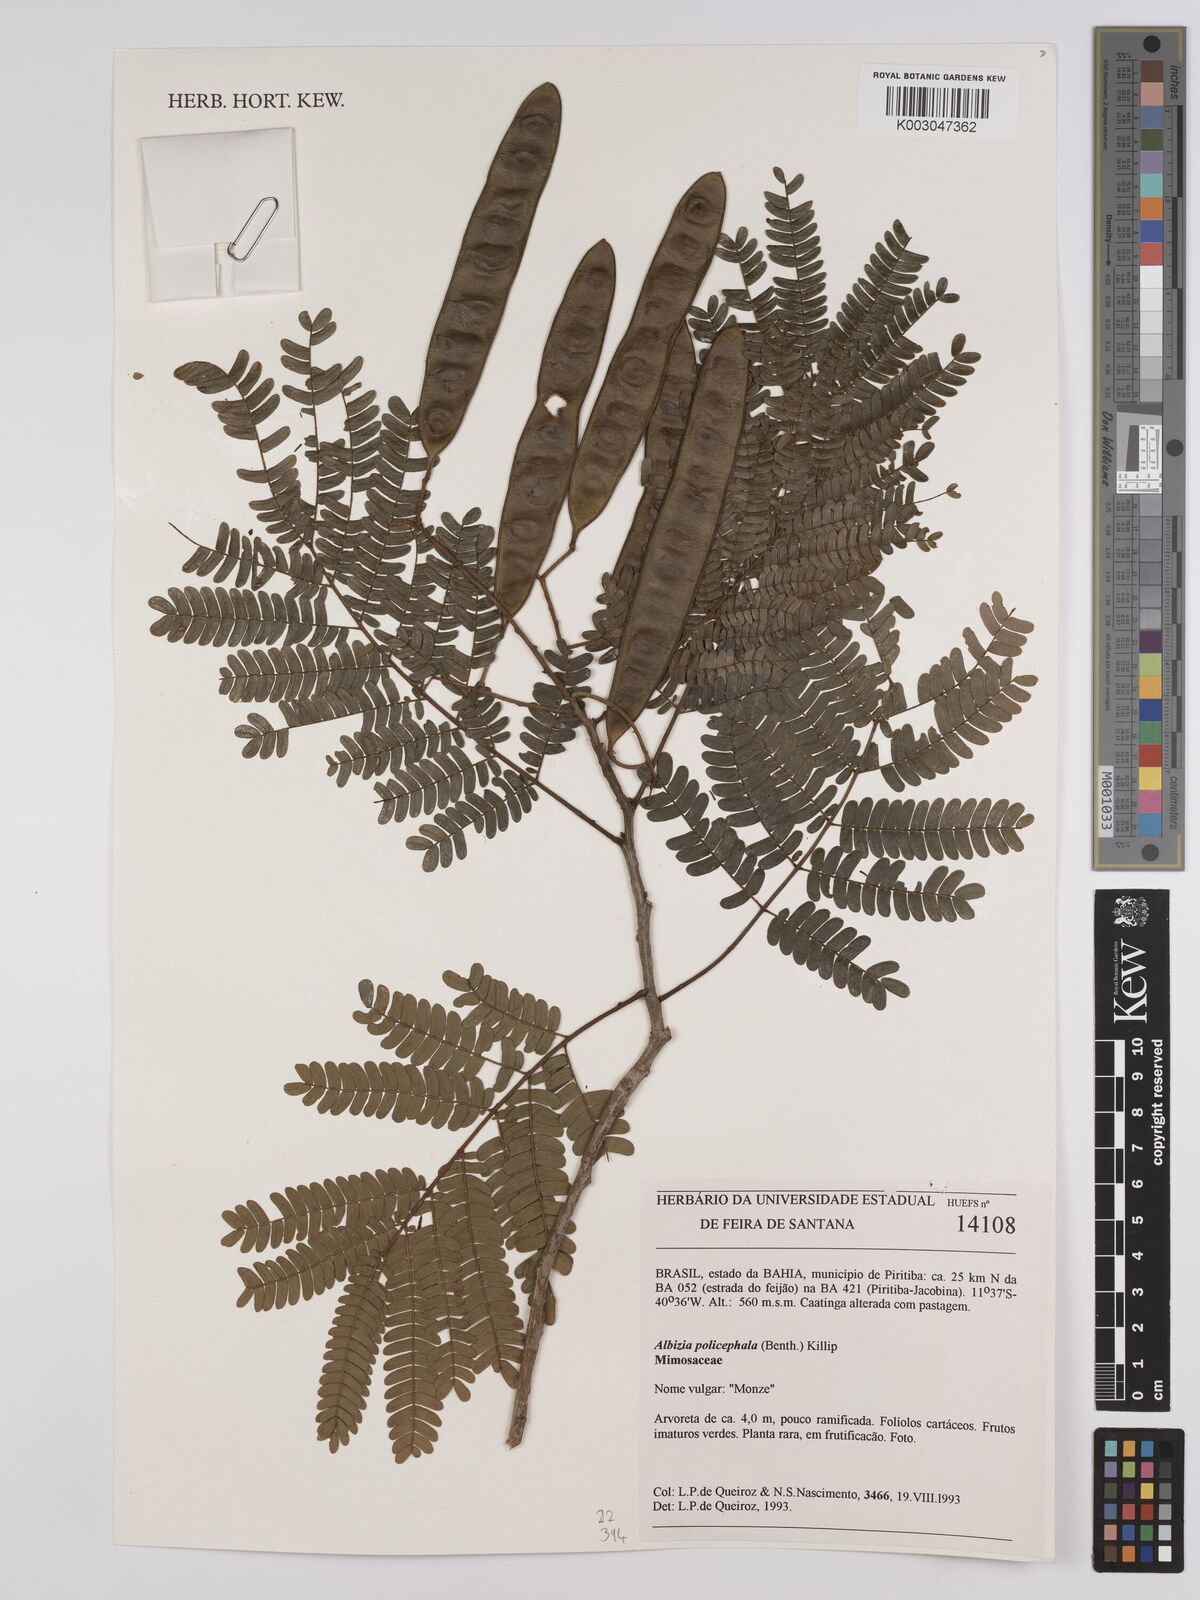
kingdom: Plantae
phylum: Tracheophyta
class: Magnoliopsida
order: Fabales
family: Fabaceae
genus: Albizia
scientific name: Albizia polycephala
